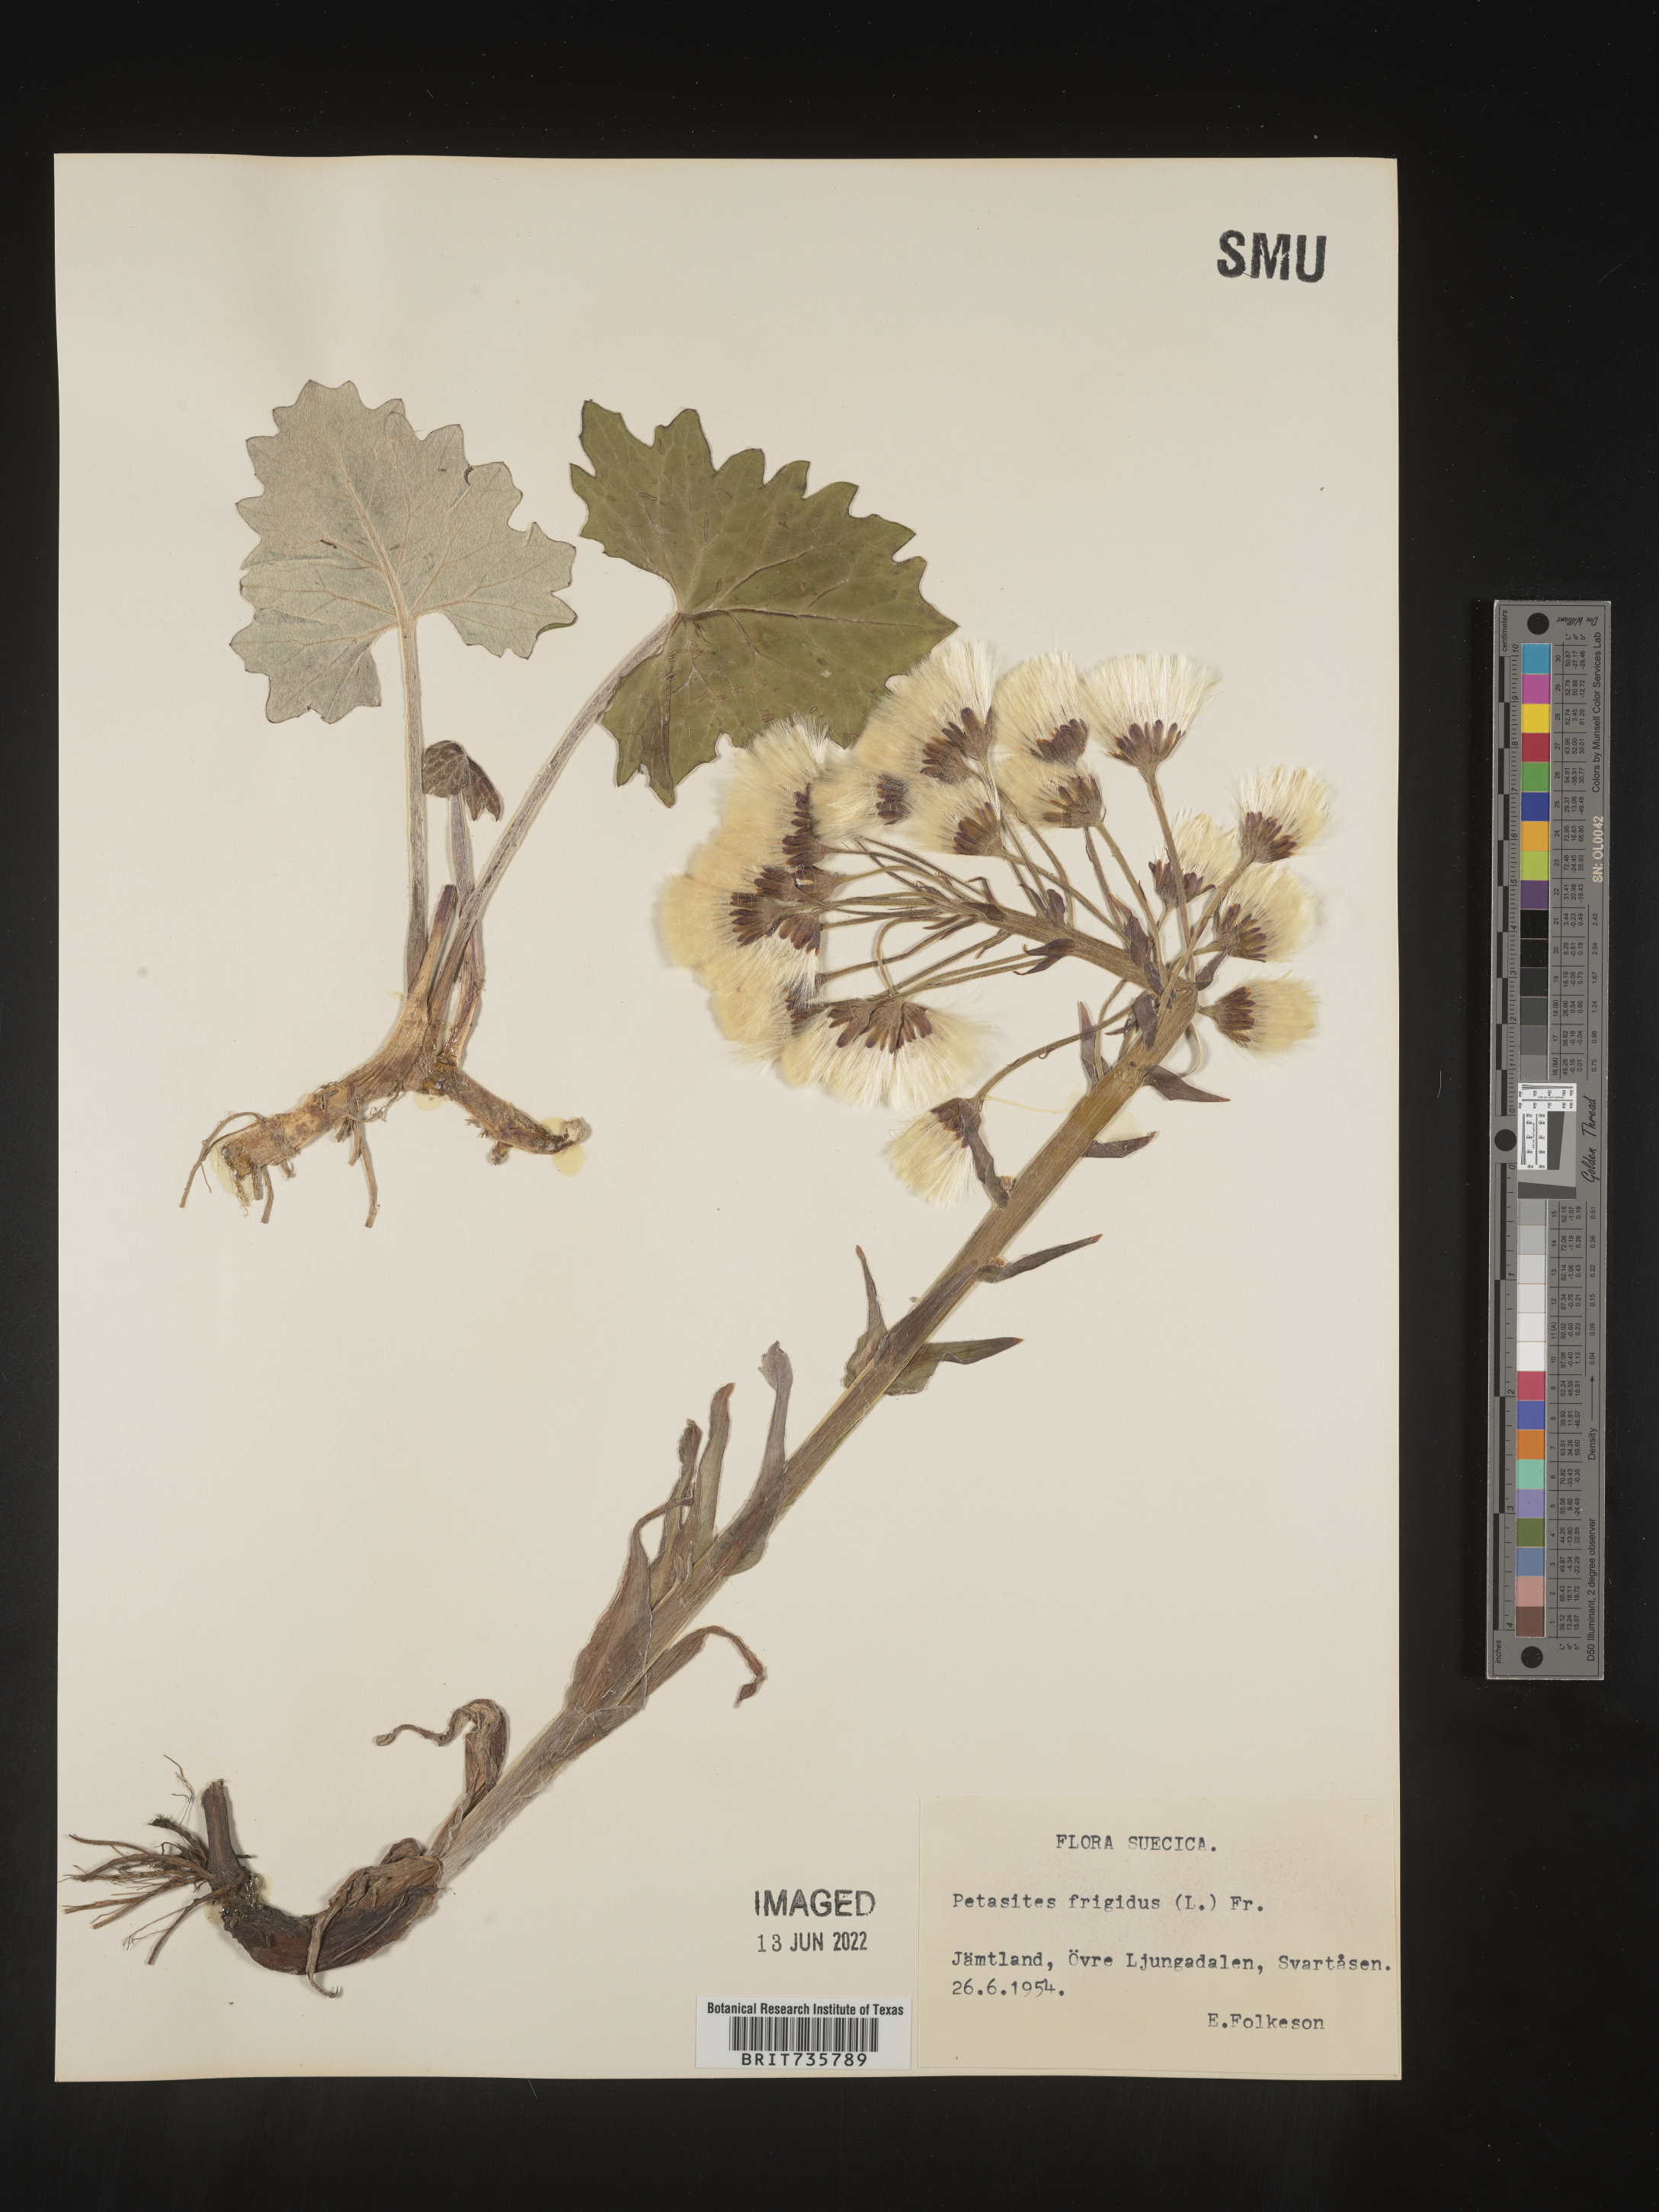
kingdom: Plantae
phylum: Tracheophyta
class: Magnoliopsida
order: Asterales
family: Asteraceae
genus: Petasites
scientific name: Petasites
